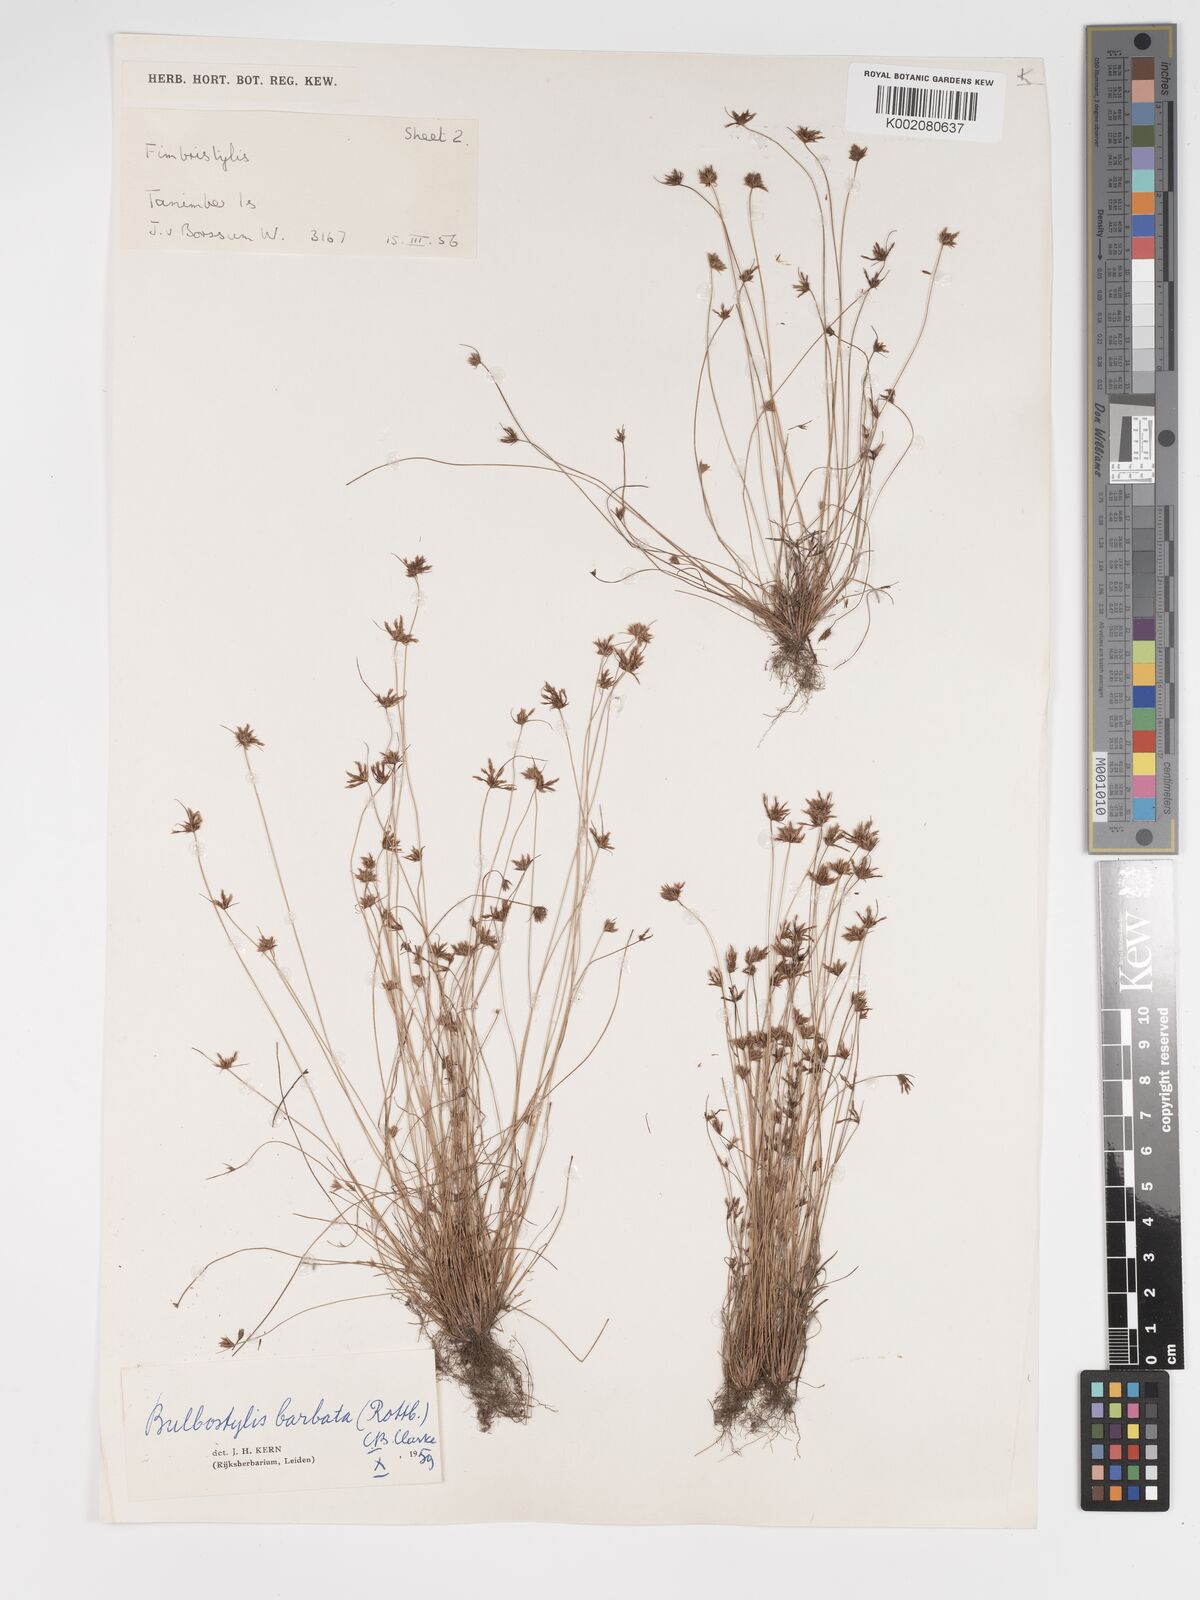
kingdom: Plantae
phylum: Tracheophyta
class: Liliopsida
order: Poales
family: Cyperaceae
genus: Bulbostylis
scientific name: Bulbostylis barbata
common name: Watergrass
